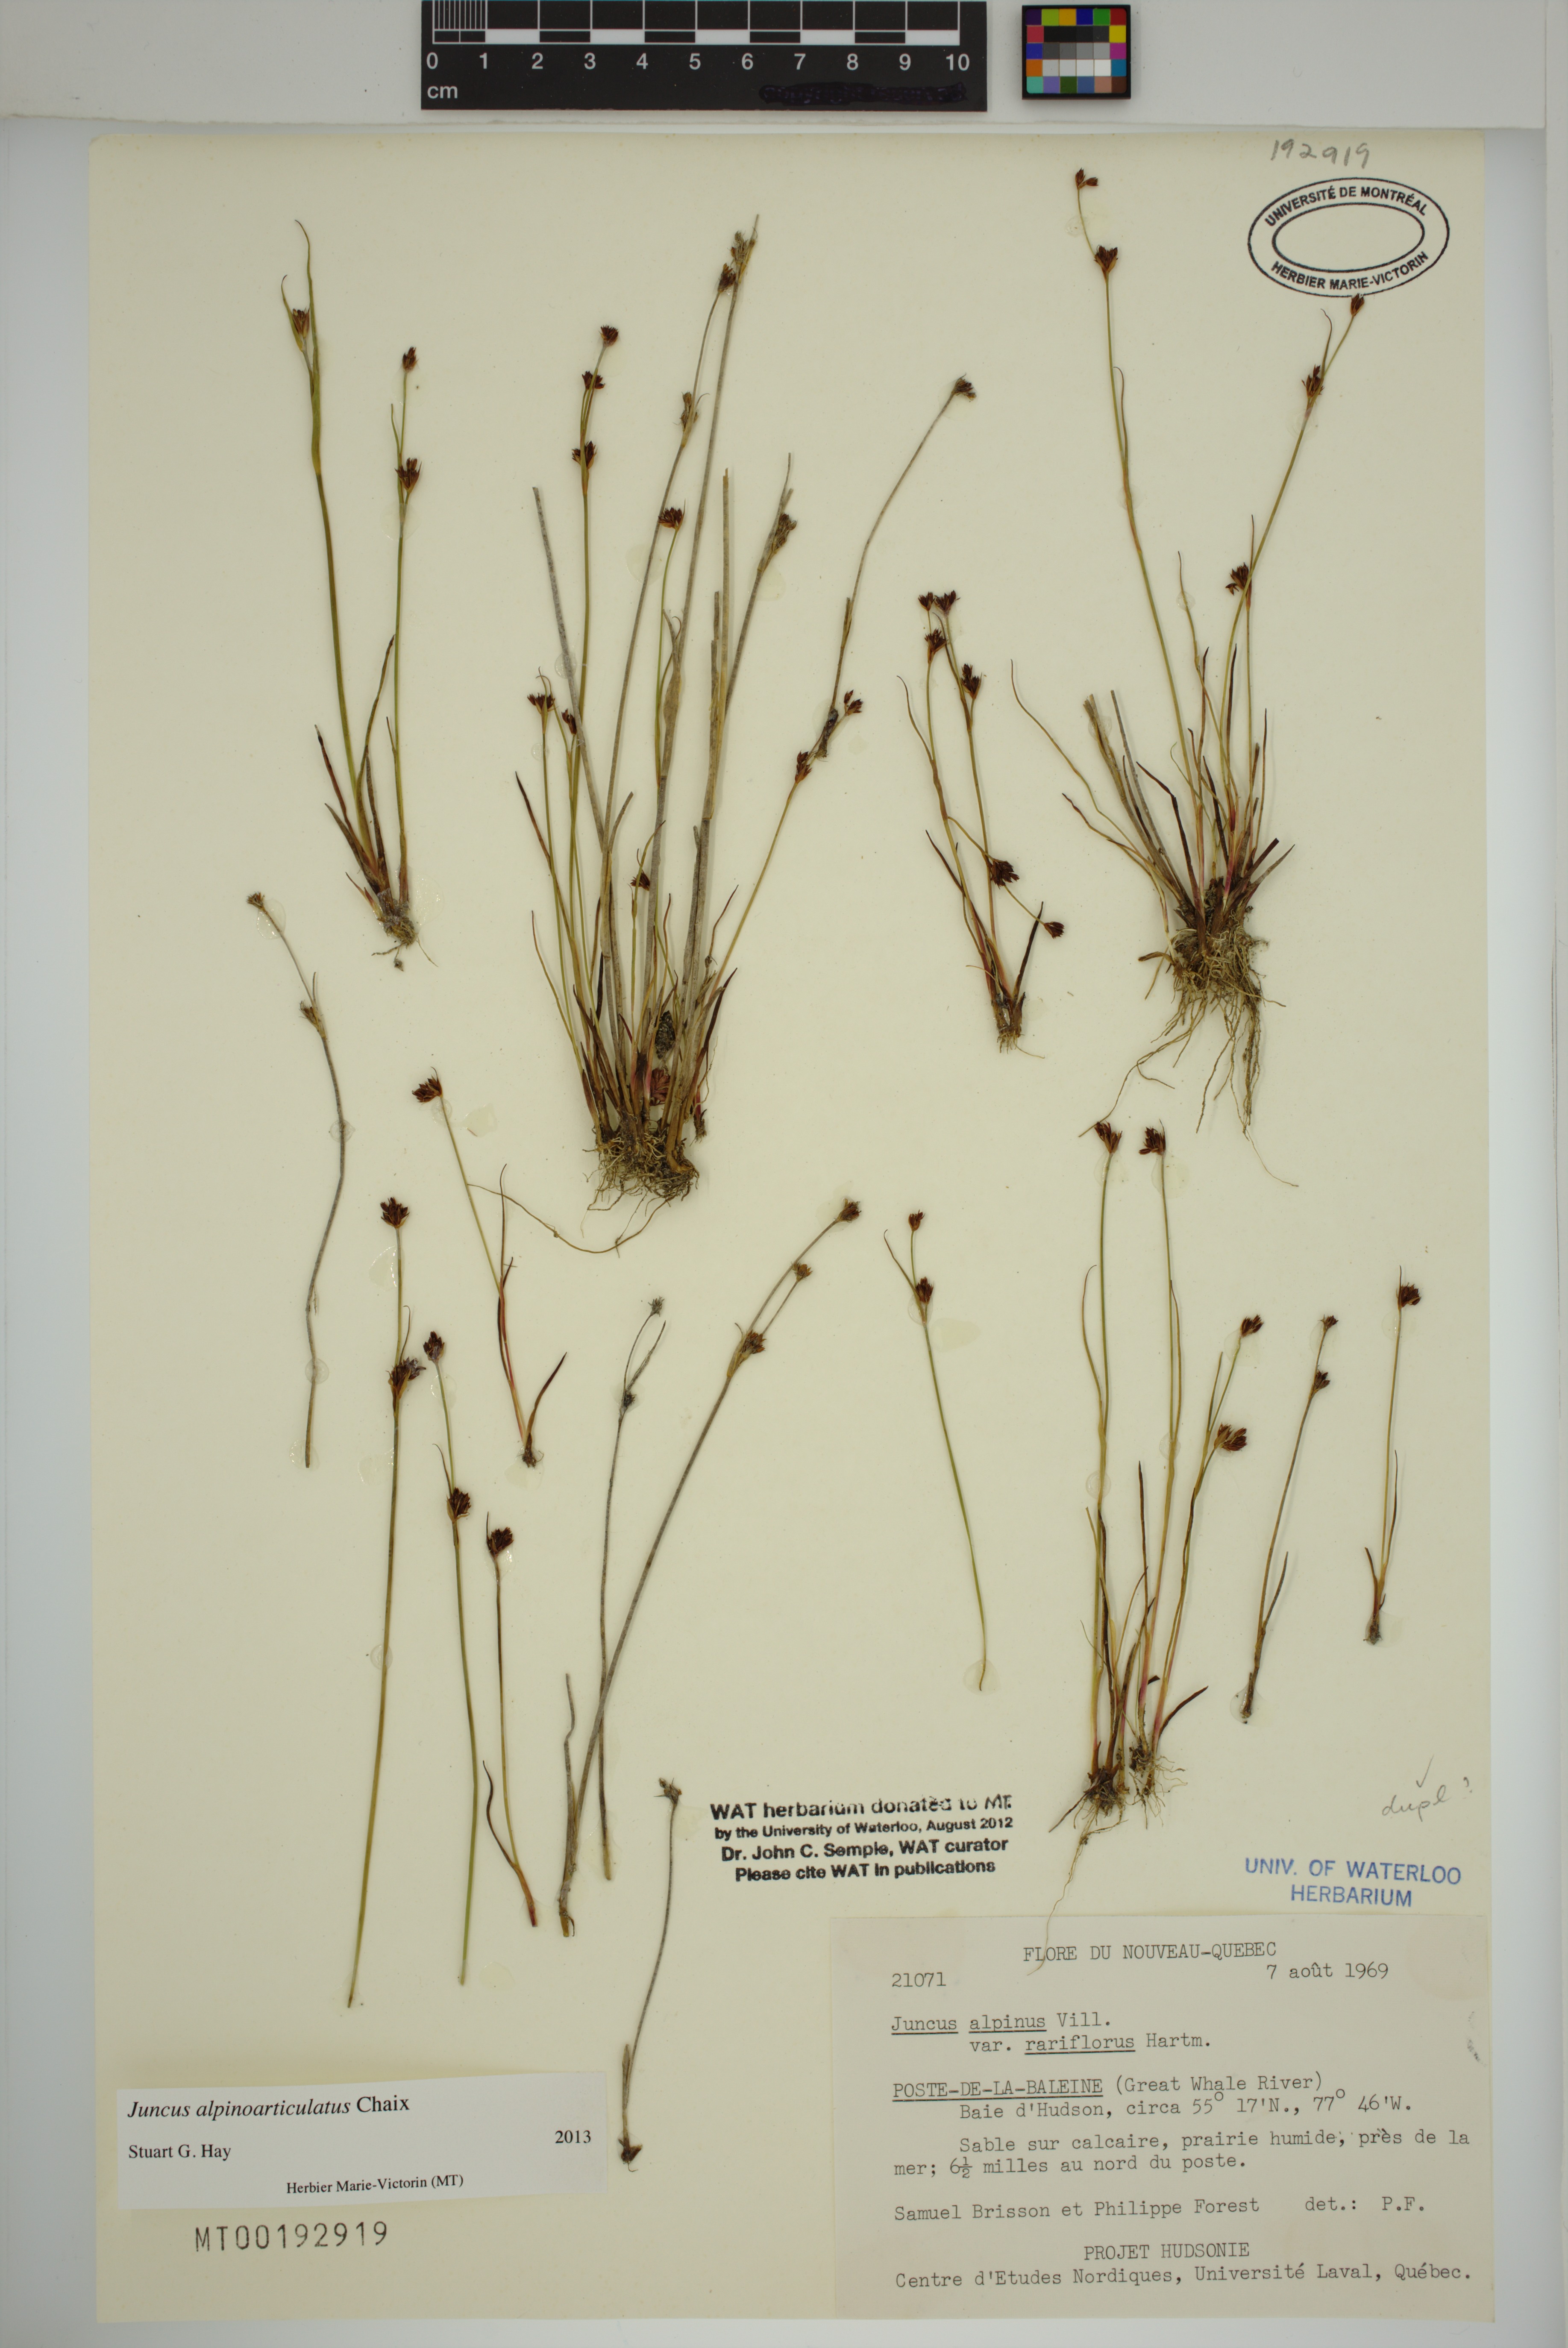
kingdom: Plantae
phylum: Tracheophyta
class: Liliopsida
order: Poales
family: Juncaceae
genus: Juncus
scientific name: Juncus alpinoarticulatus
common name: Alpine rush
